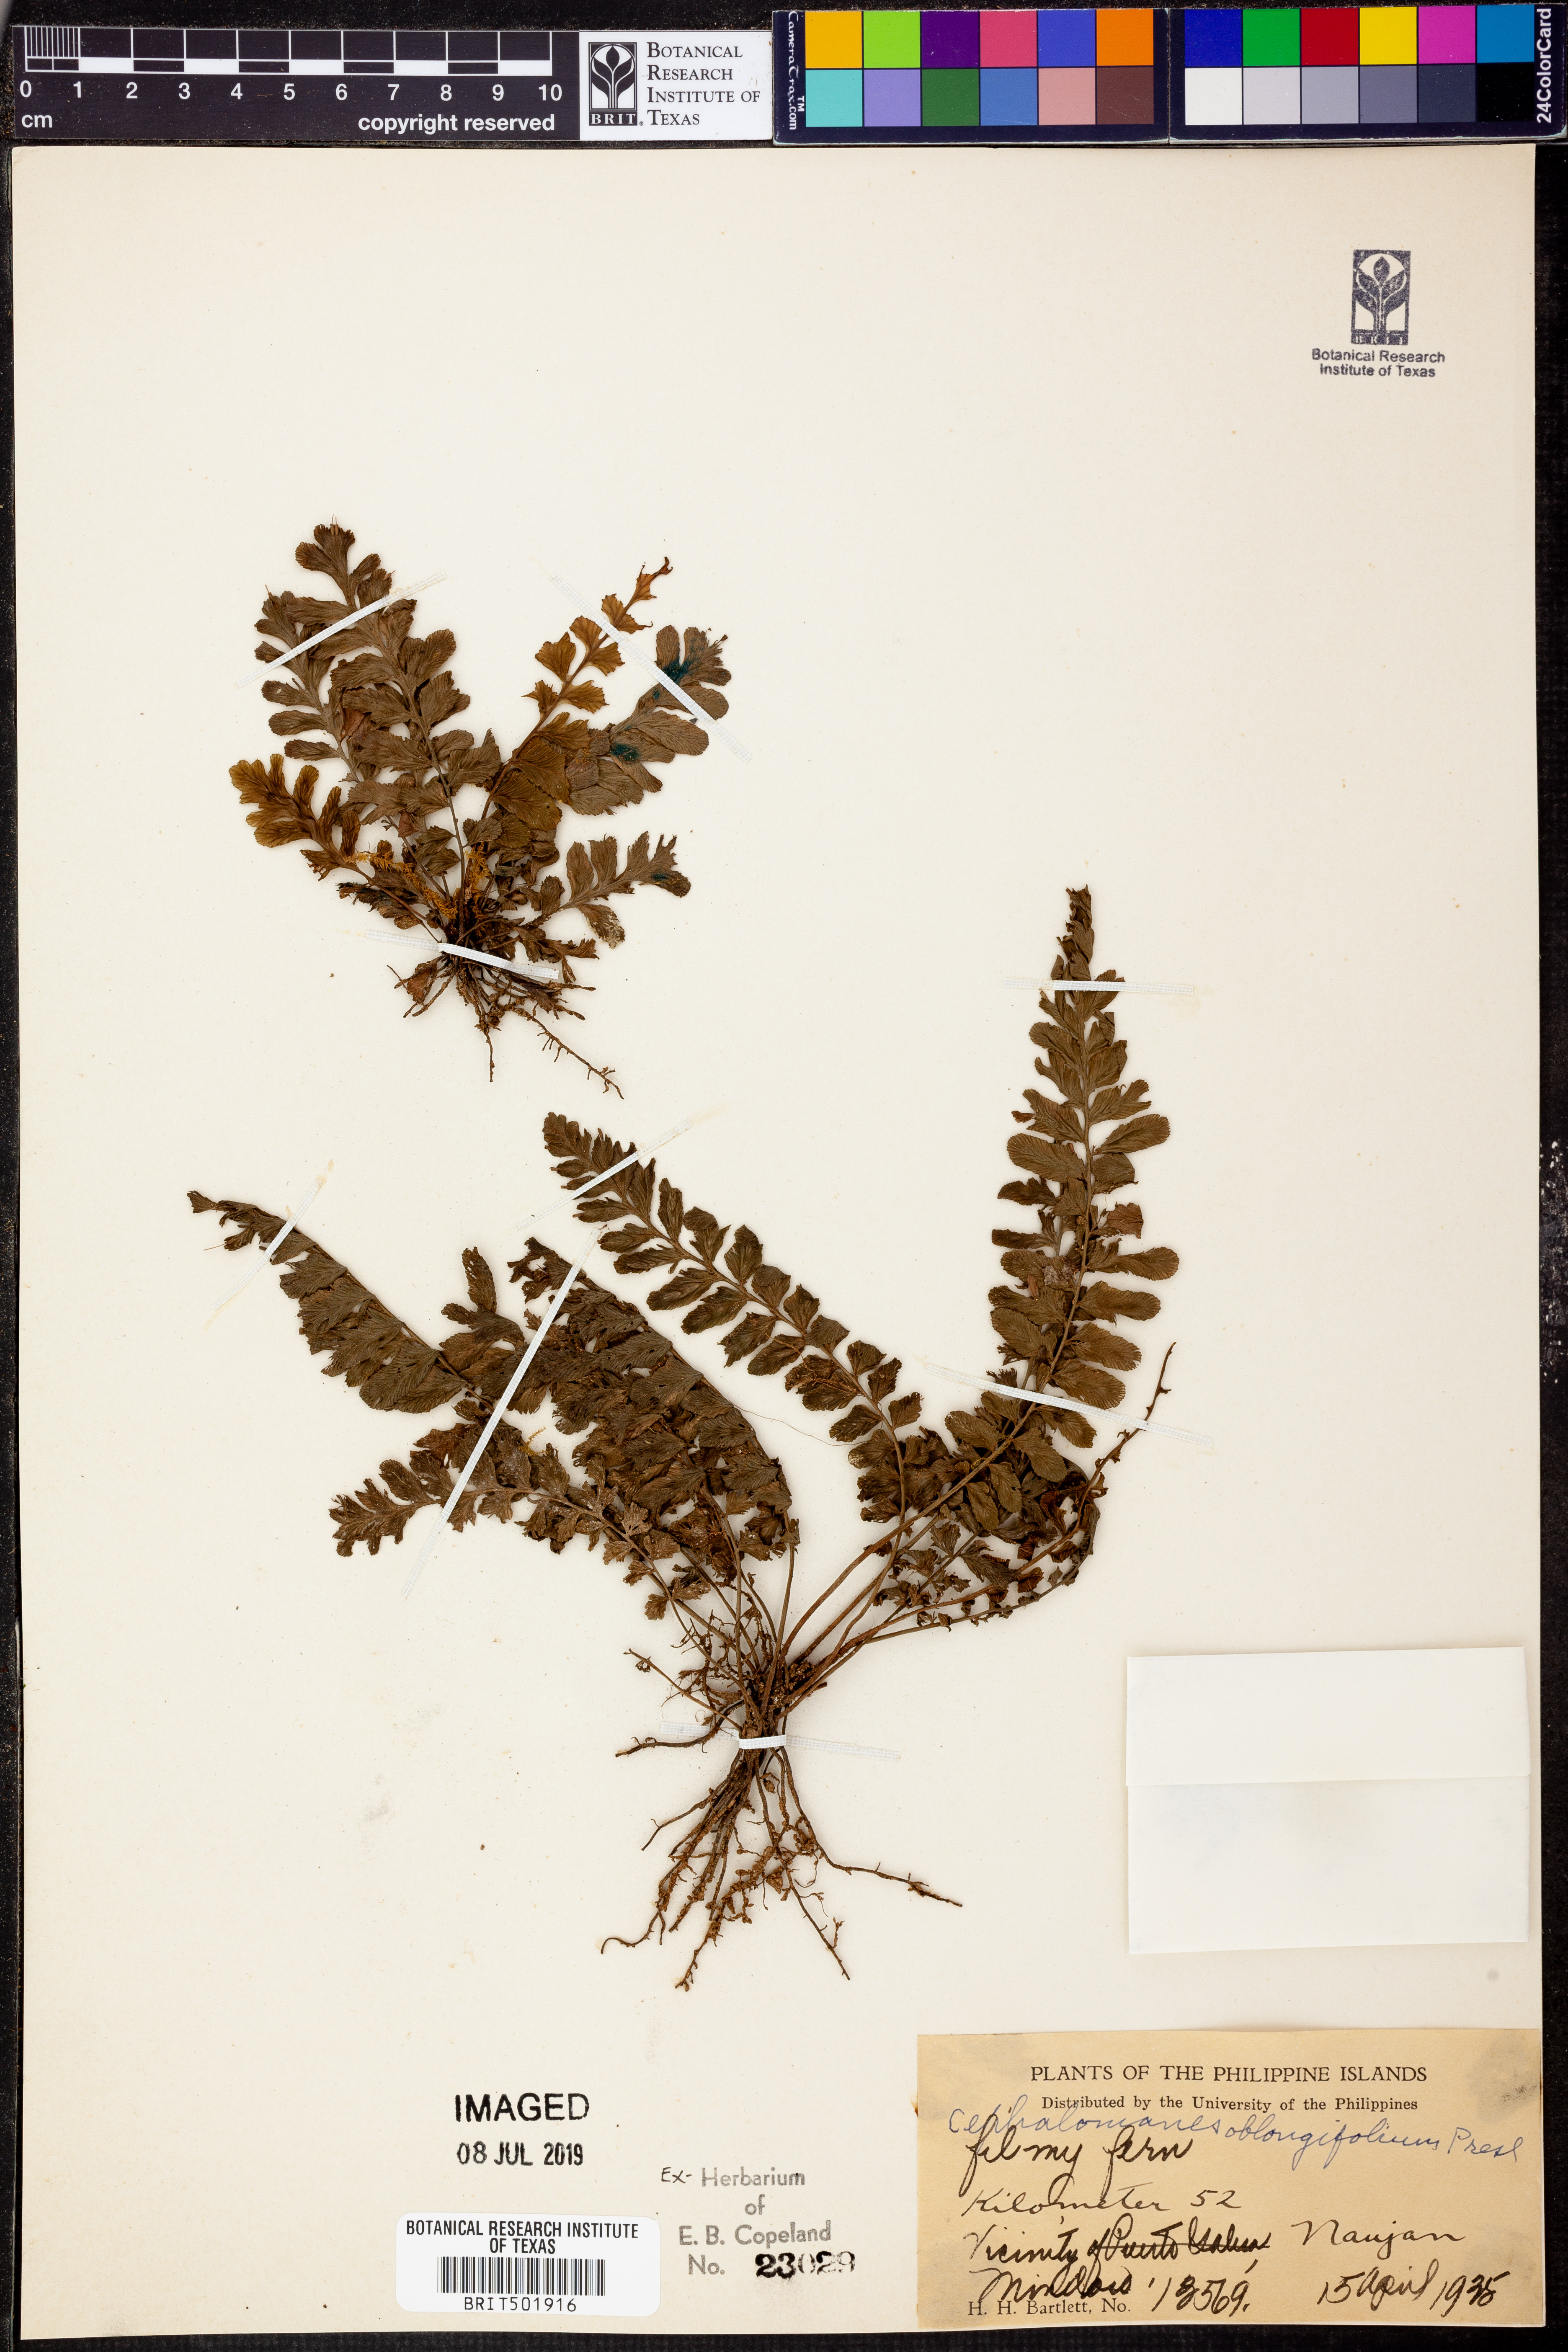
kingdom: Plantae
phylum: Tracheophyta
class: Polypodiopsida
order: Hymenophyllales
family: Hymenophyllaceae
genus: Cephalomanes
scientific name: Cephalomanes javanicum
